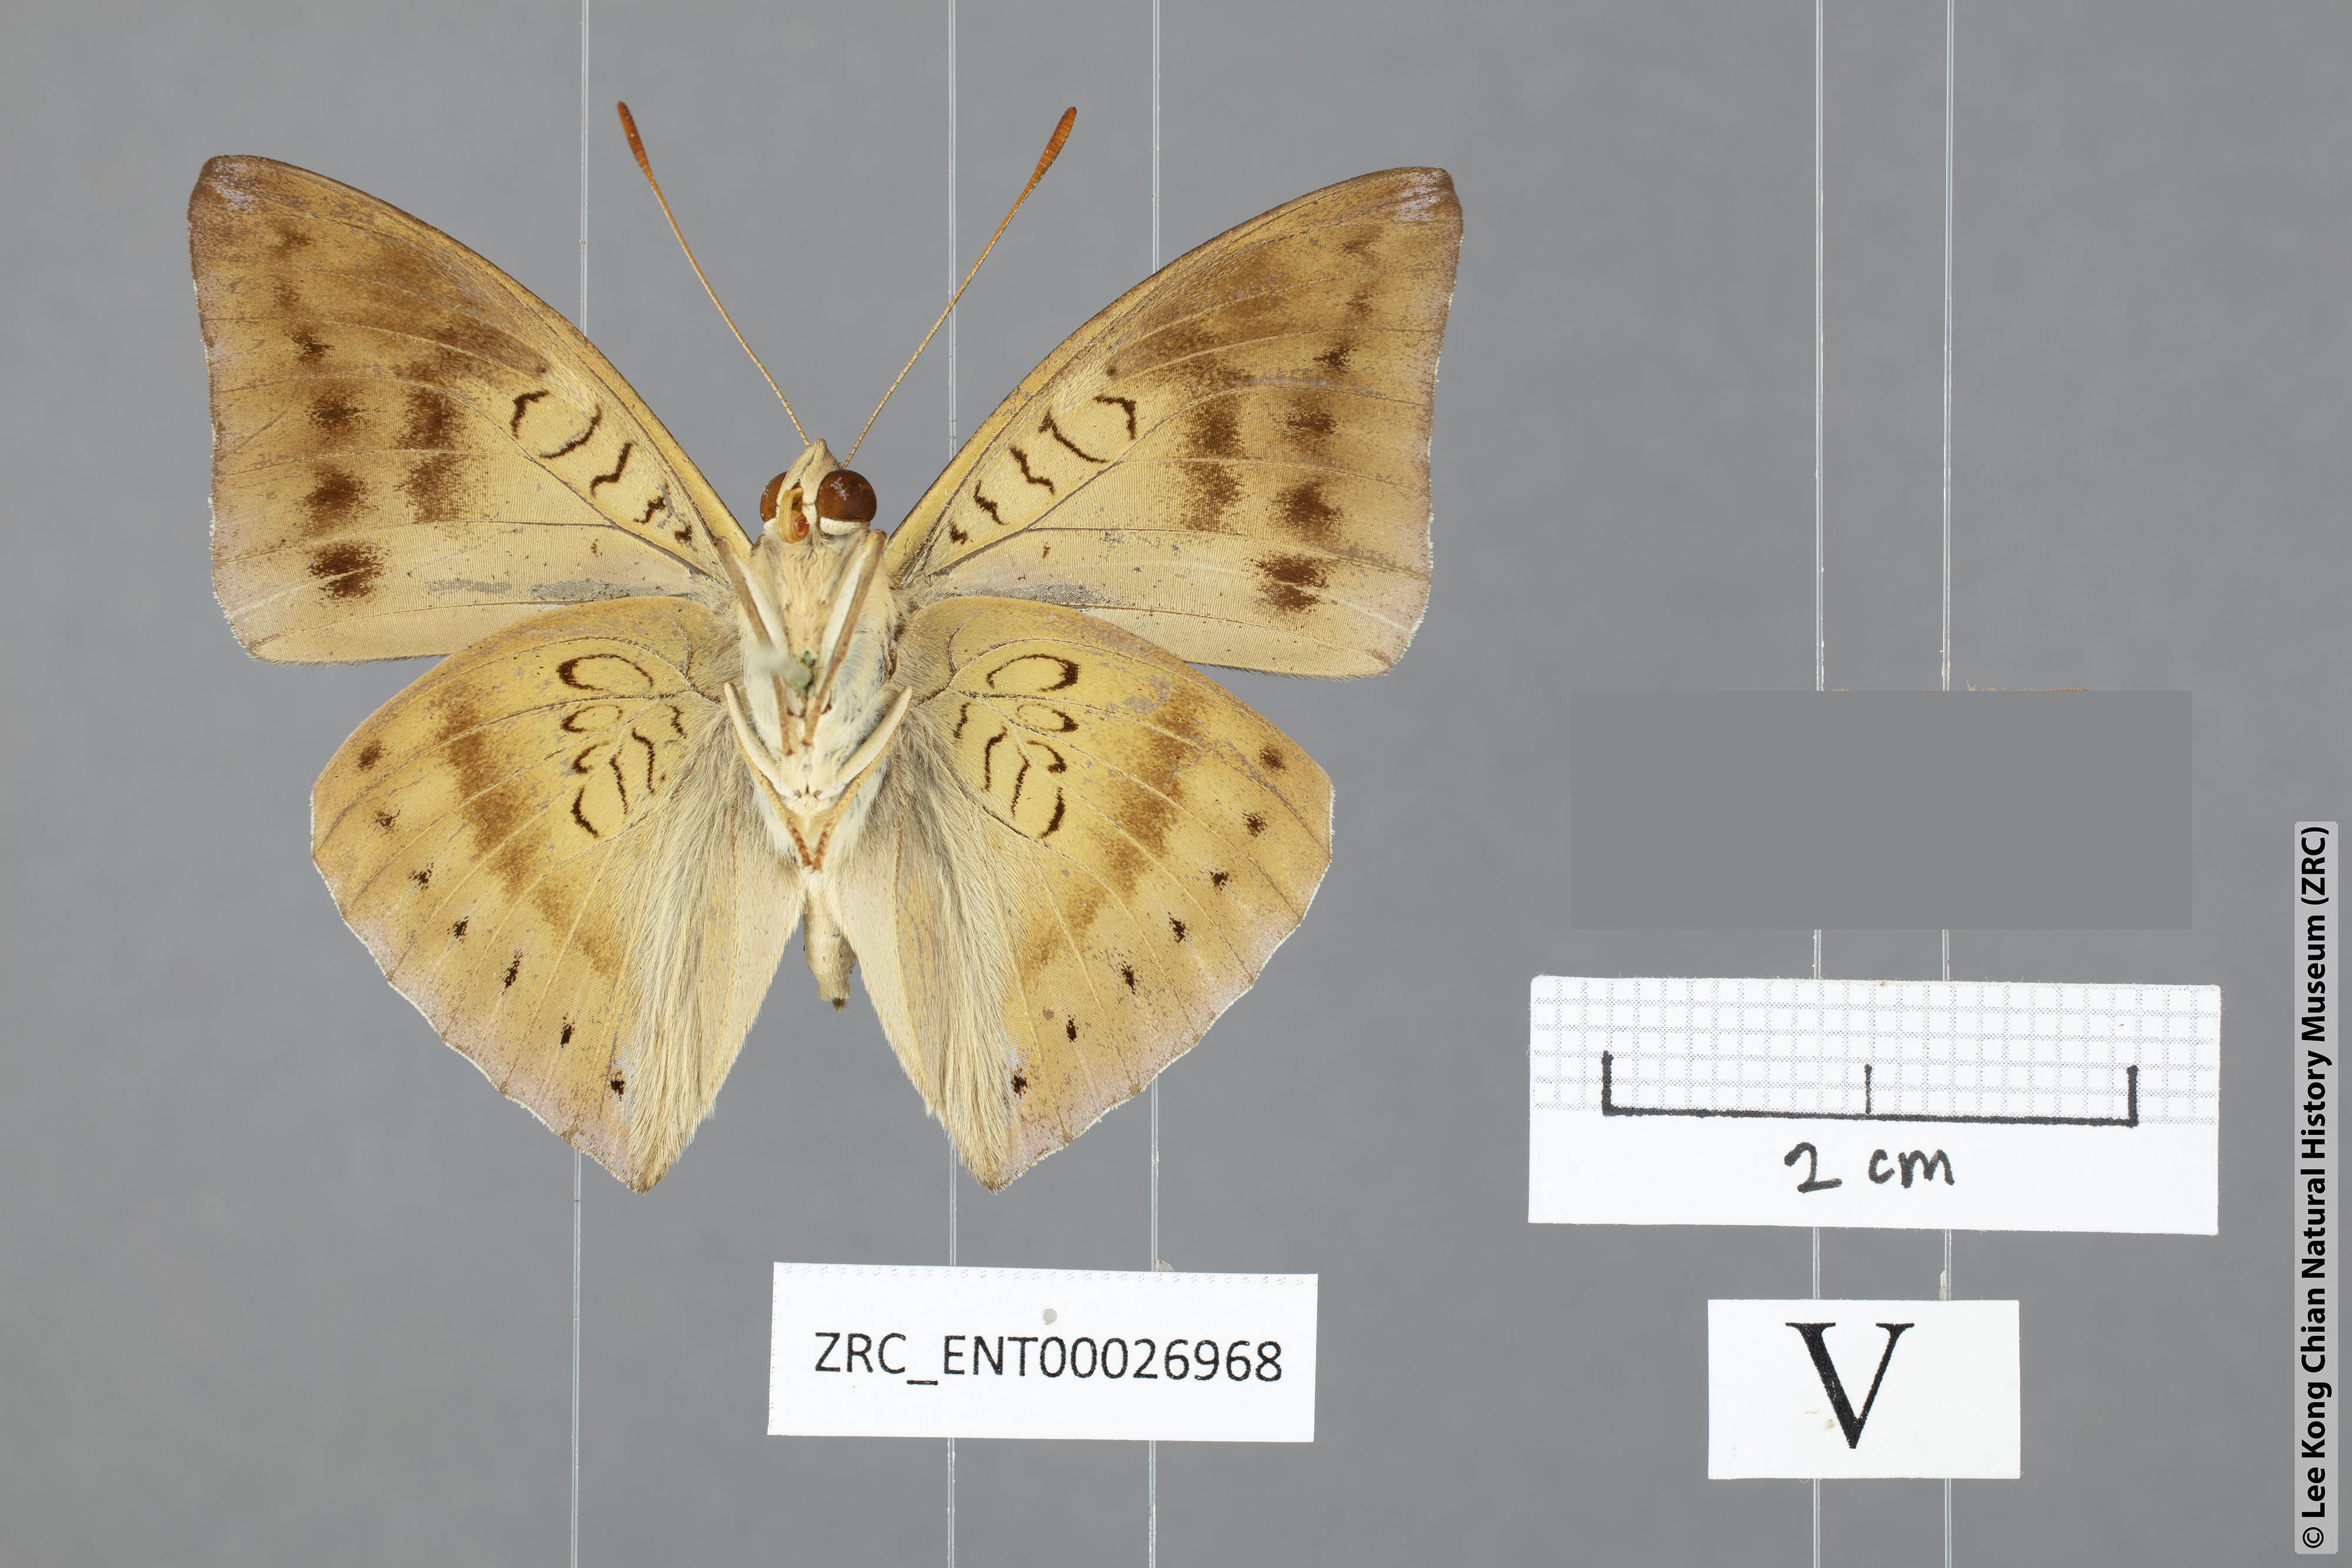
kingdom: Animalia
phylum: Arthropoda
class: Insecta
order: Lepidoptera
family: Nymphalidae
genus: Euthalia
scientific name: Euthalia mahadeva
